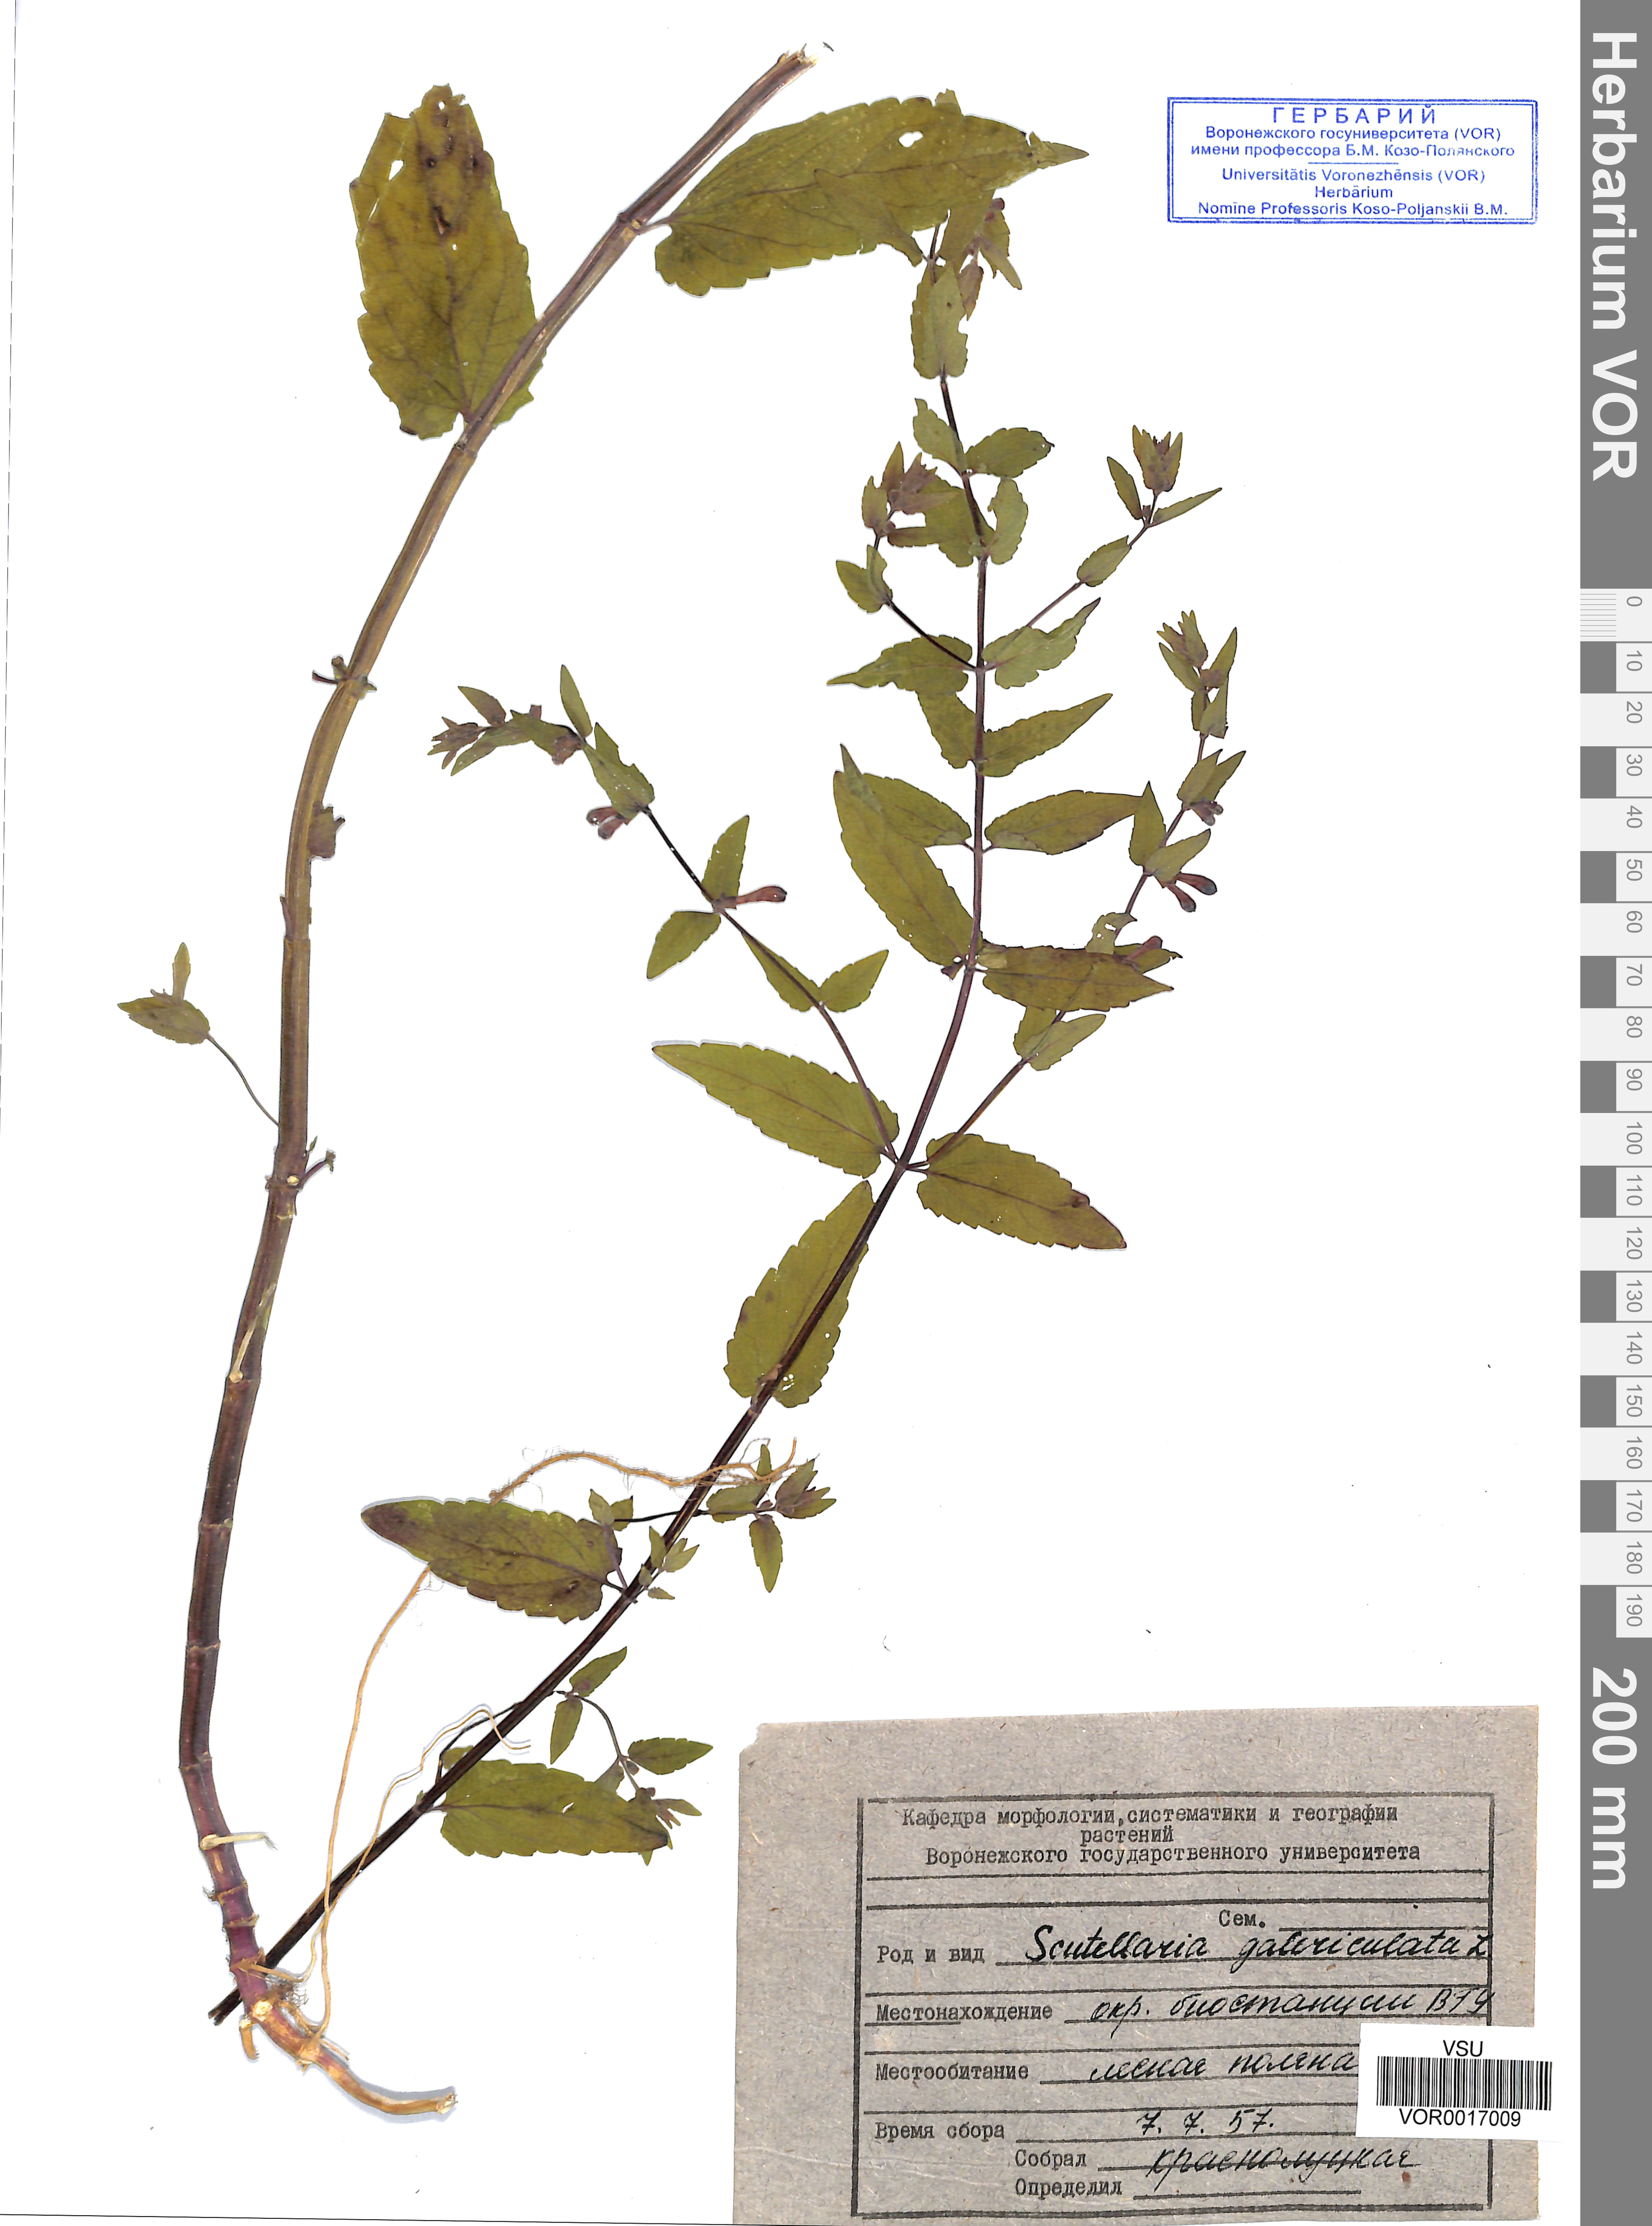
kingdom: Plantae
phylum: Tracheophyta
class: Magnoliopsida
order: Lamiales
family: Lamiaceae
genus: Scutellaria
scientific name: Scutellaria galericulata
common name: Skullcap
